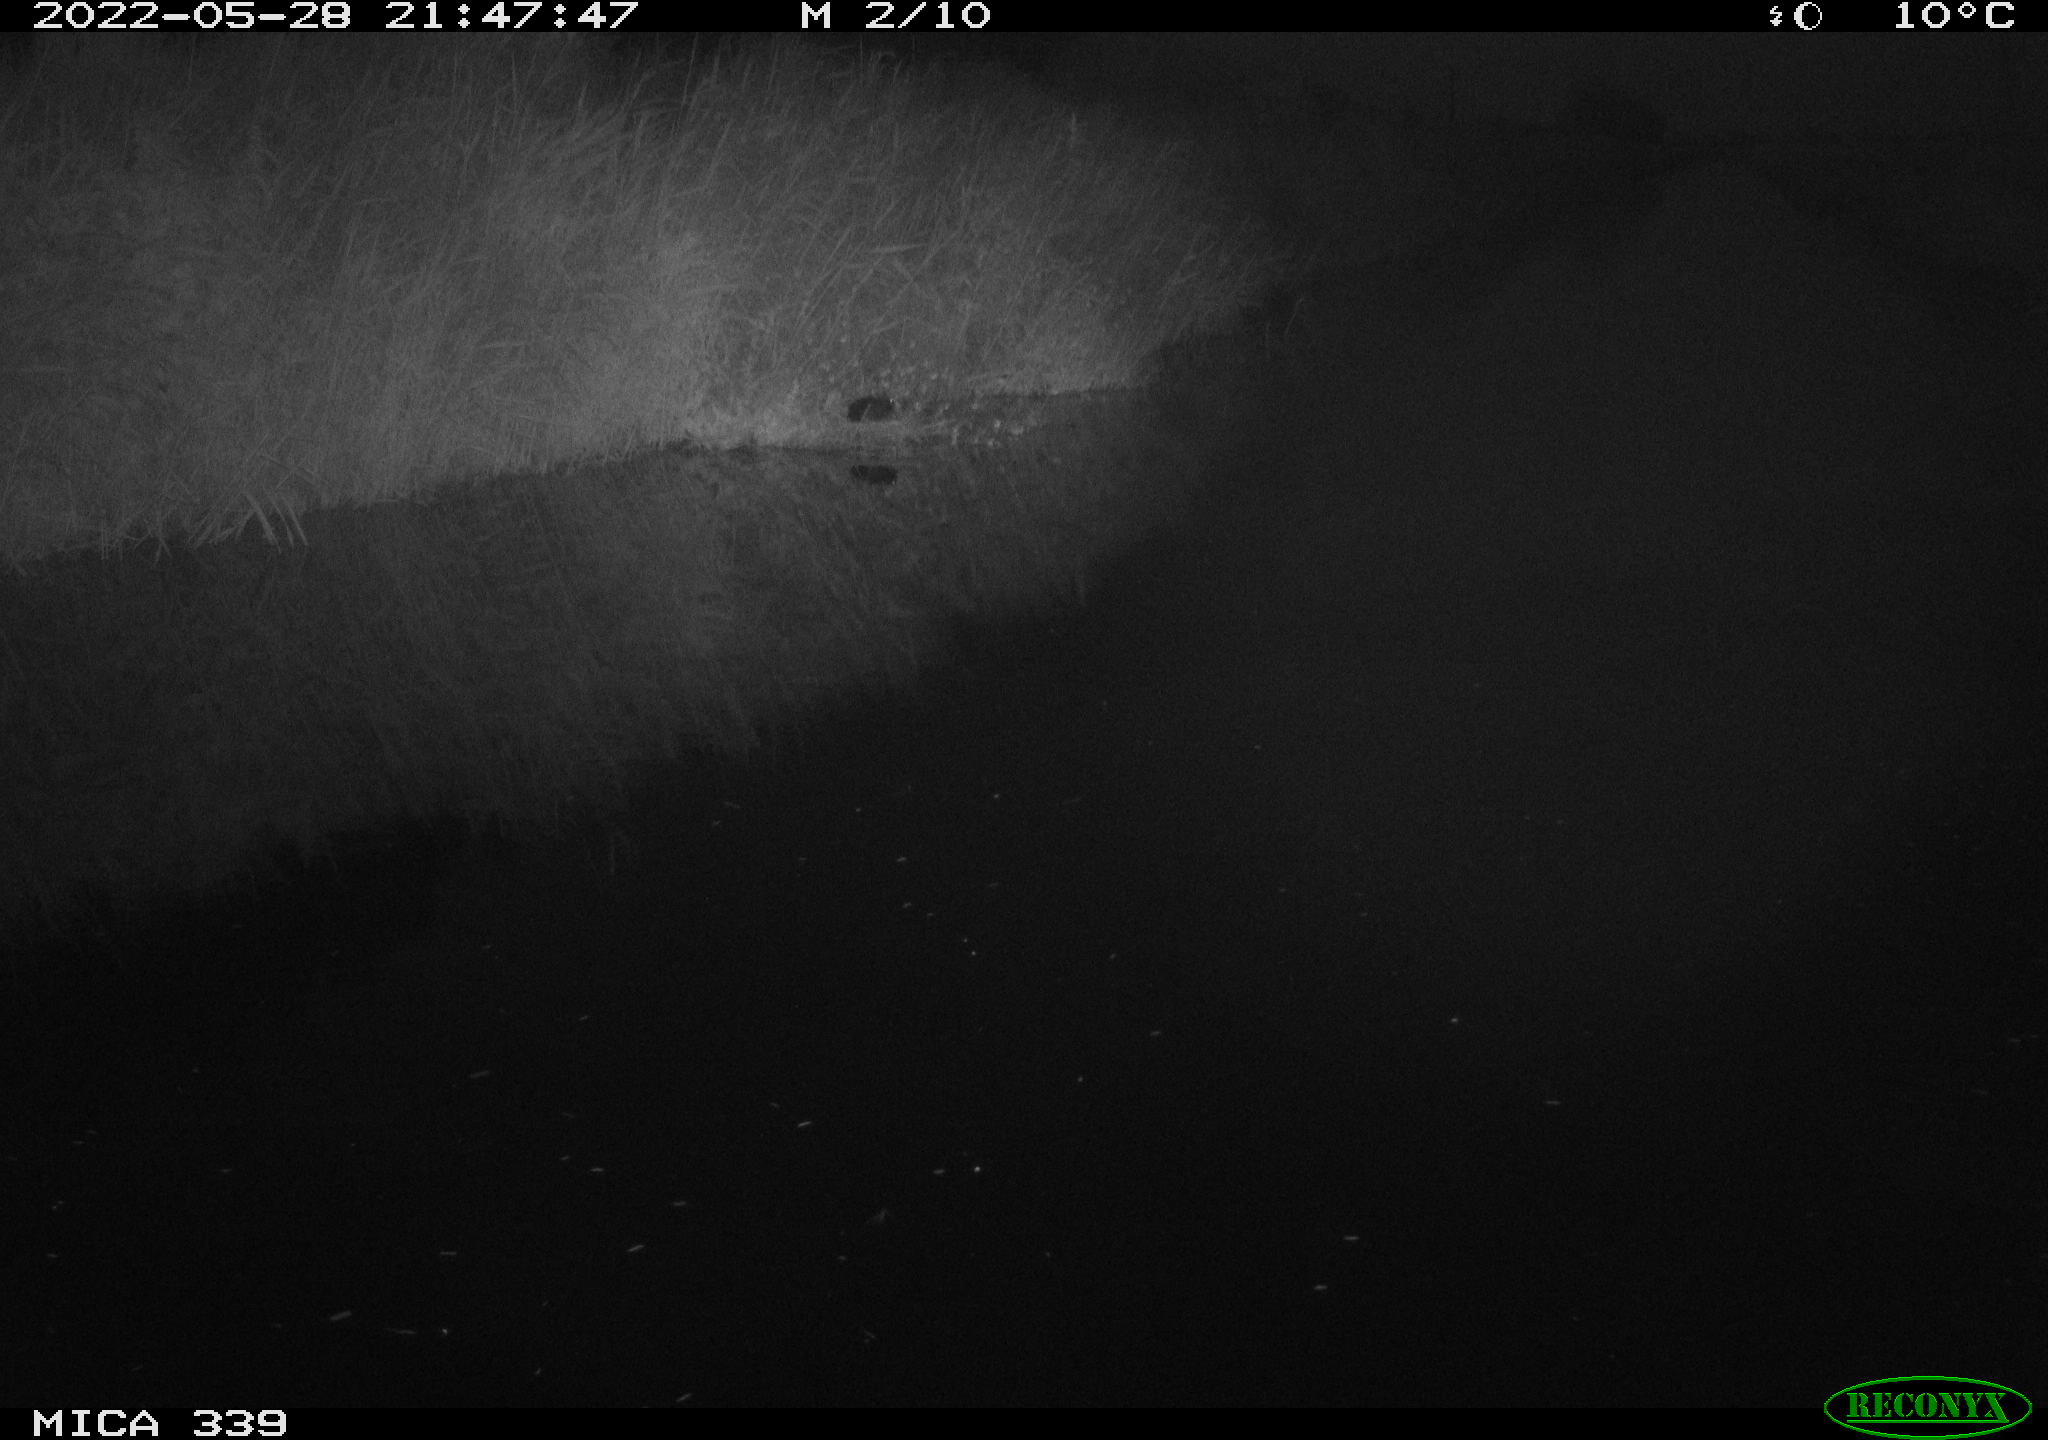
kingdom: Animalia
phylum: Chordata
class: Aves
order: Pelecaniformes
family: Ardeidae
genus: Ardea
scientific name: Ardea cinerea
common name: Grey heron
